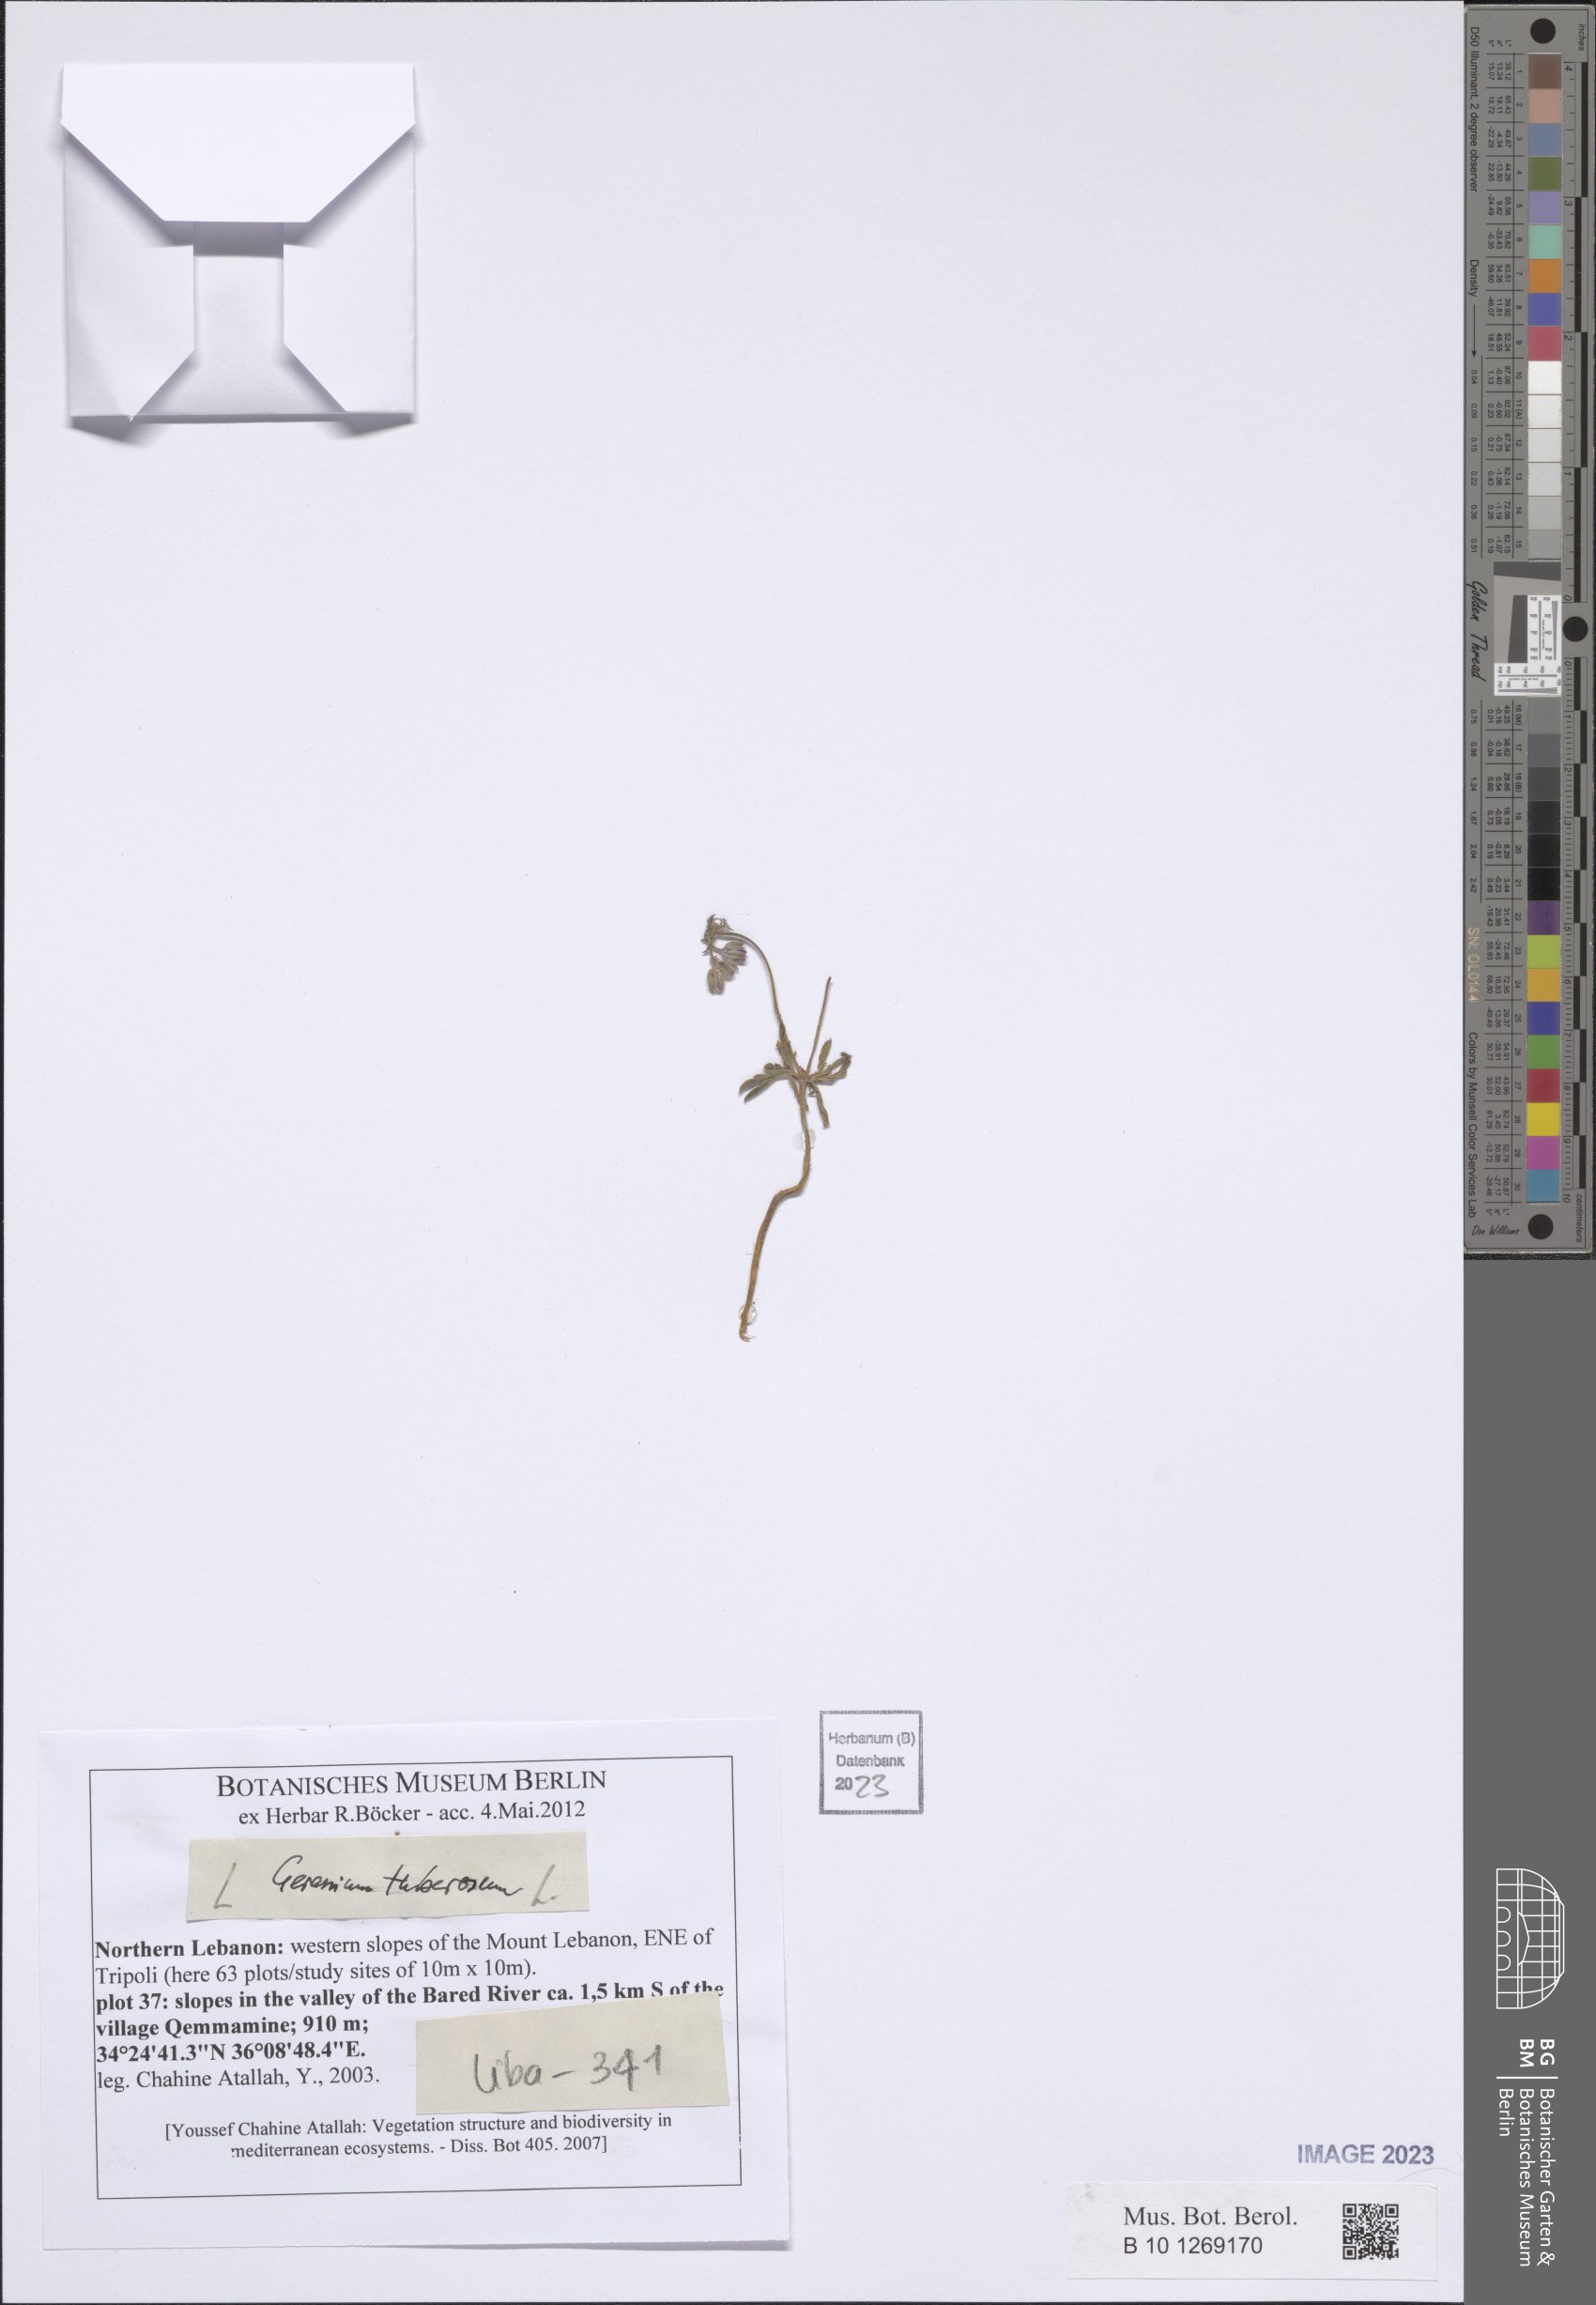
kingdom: Plantae
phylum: Tracheophyta
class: Magnoliopsida
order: Geraniales
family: Geraniaceae
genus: Geranium
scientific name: Geranium tuberosum
